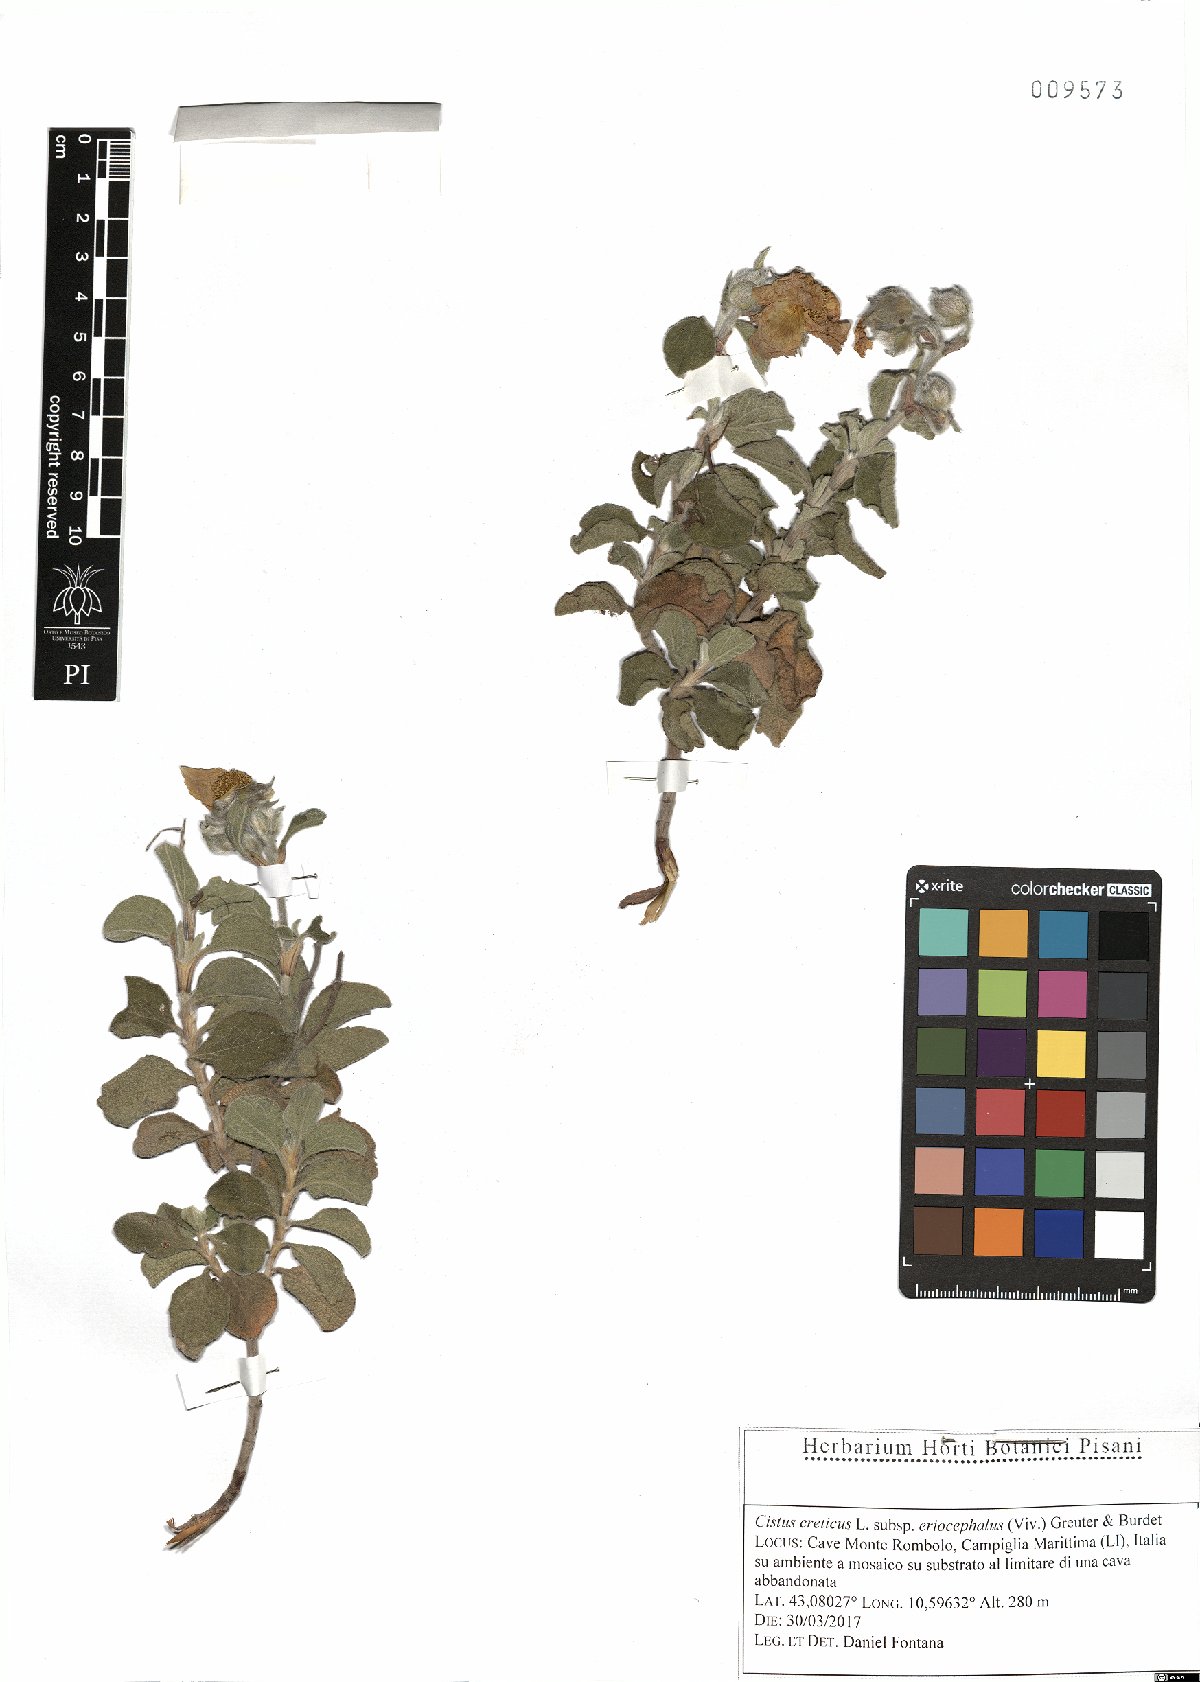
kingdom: Plantae
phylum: Tracheophyta
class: Magnoliopsida
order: Malvales
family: Cistaceae
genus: Cistus
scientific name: Cistus tauricus
